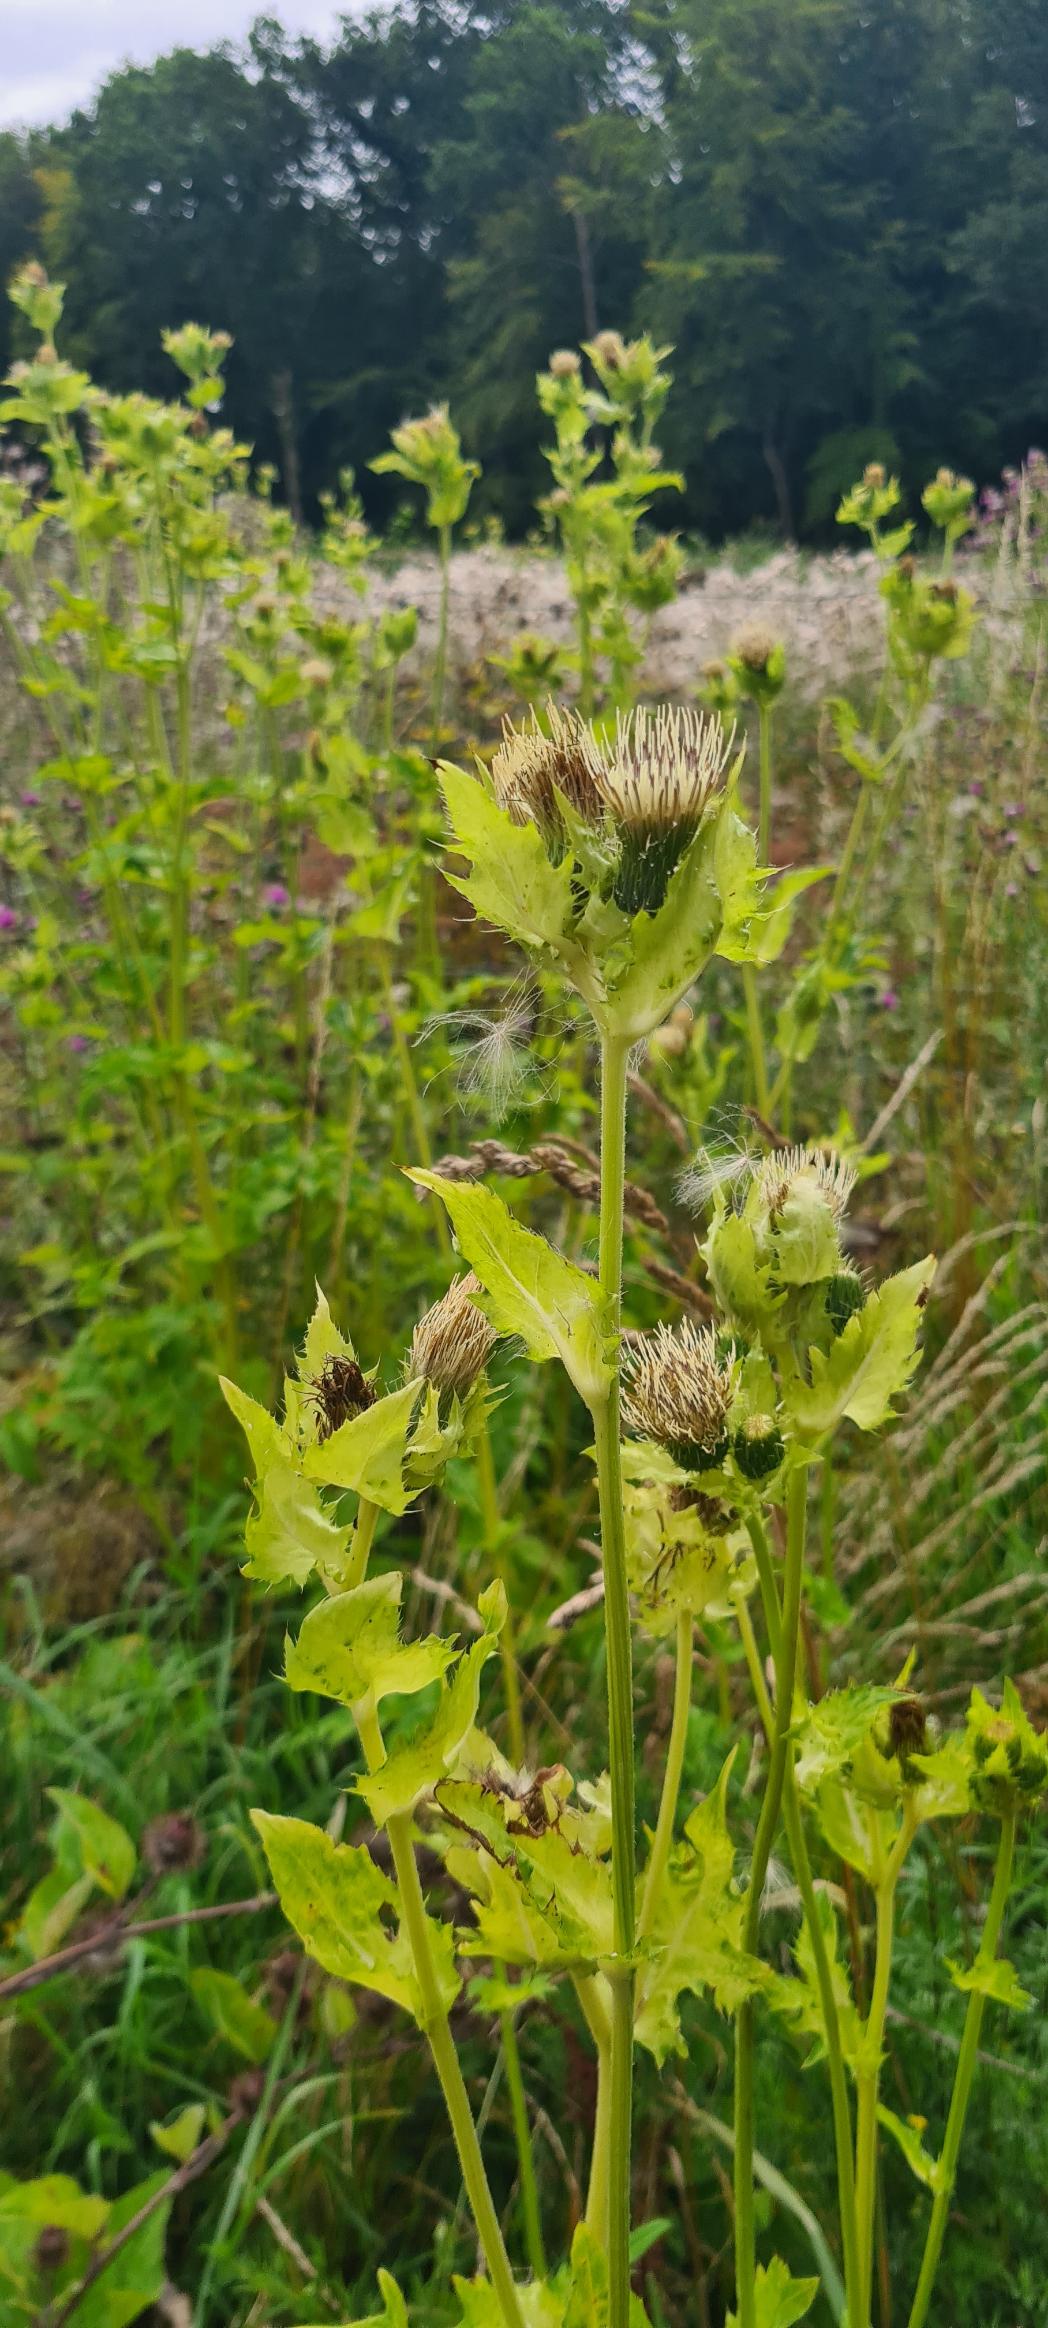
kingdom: Plantae
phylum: Tracheophyta
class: Magnoliopsida
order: Asterales
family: Asteraceae
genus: Cirsium
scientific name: Cirsium oleraceum
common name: Kål-tidsel
